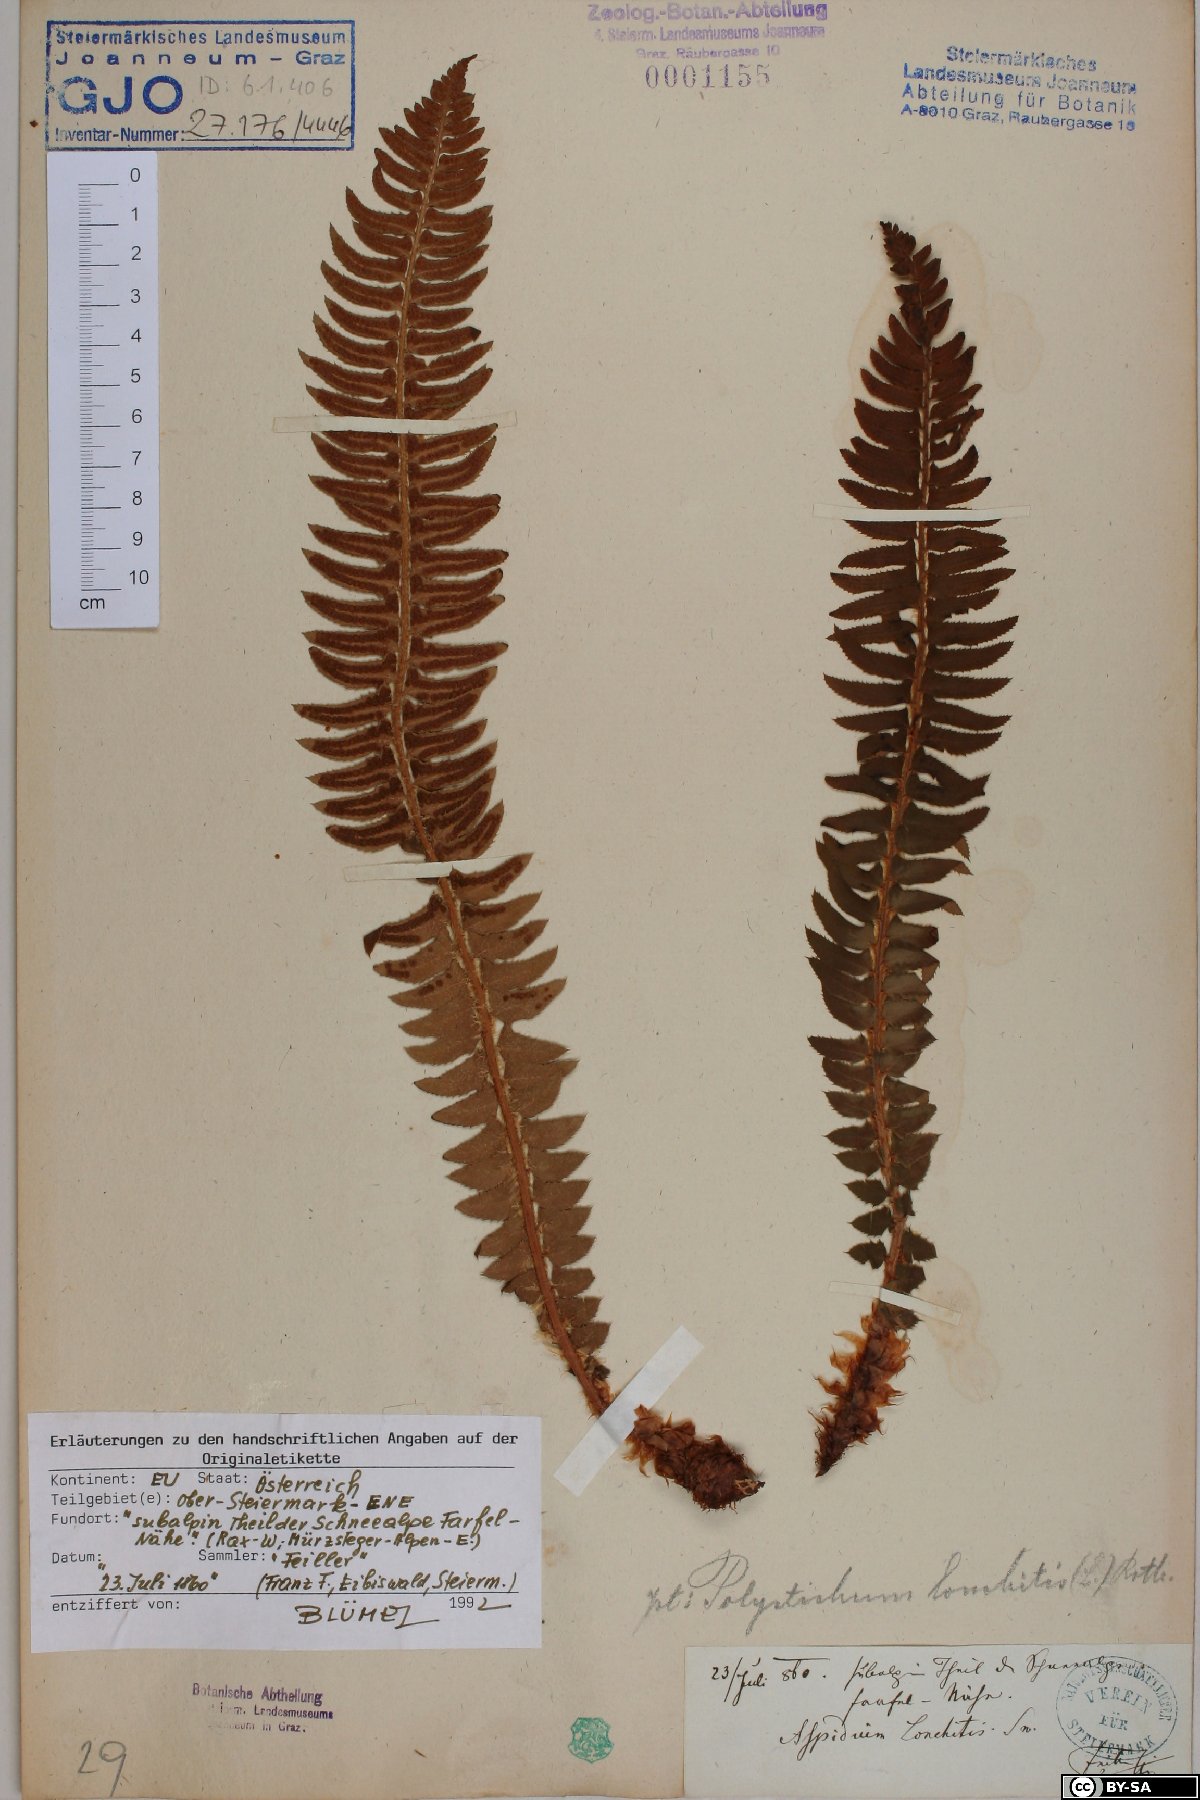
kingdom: Plantae
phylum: Tracheophyta
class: Polypodiopsida
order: Polypodiales
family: Dryopteridaceae
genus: Polystichum
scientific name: Polystichum lonchitis
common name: Holly fern
